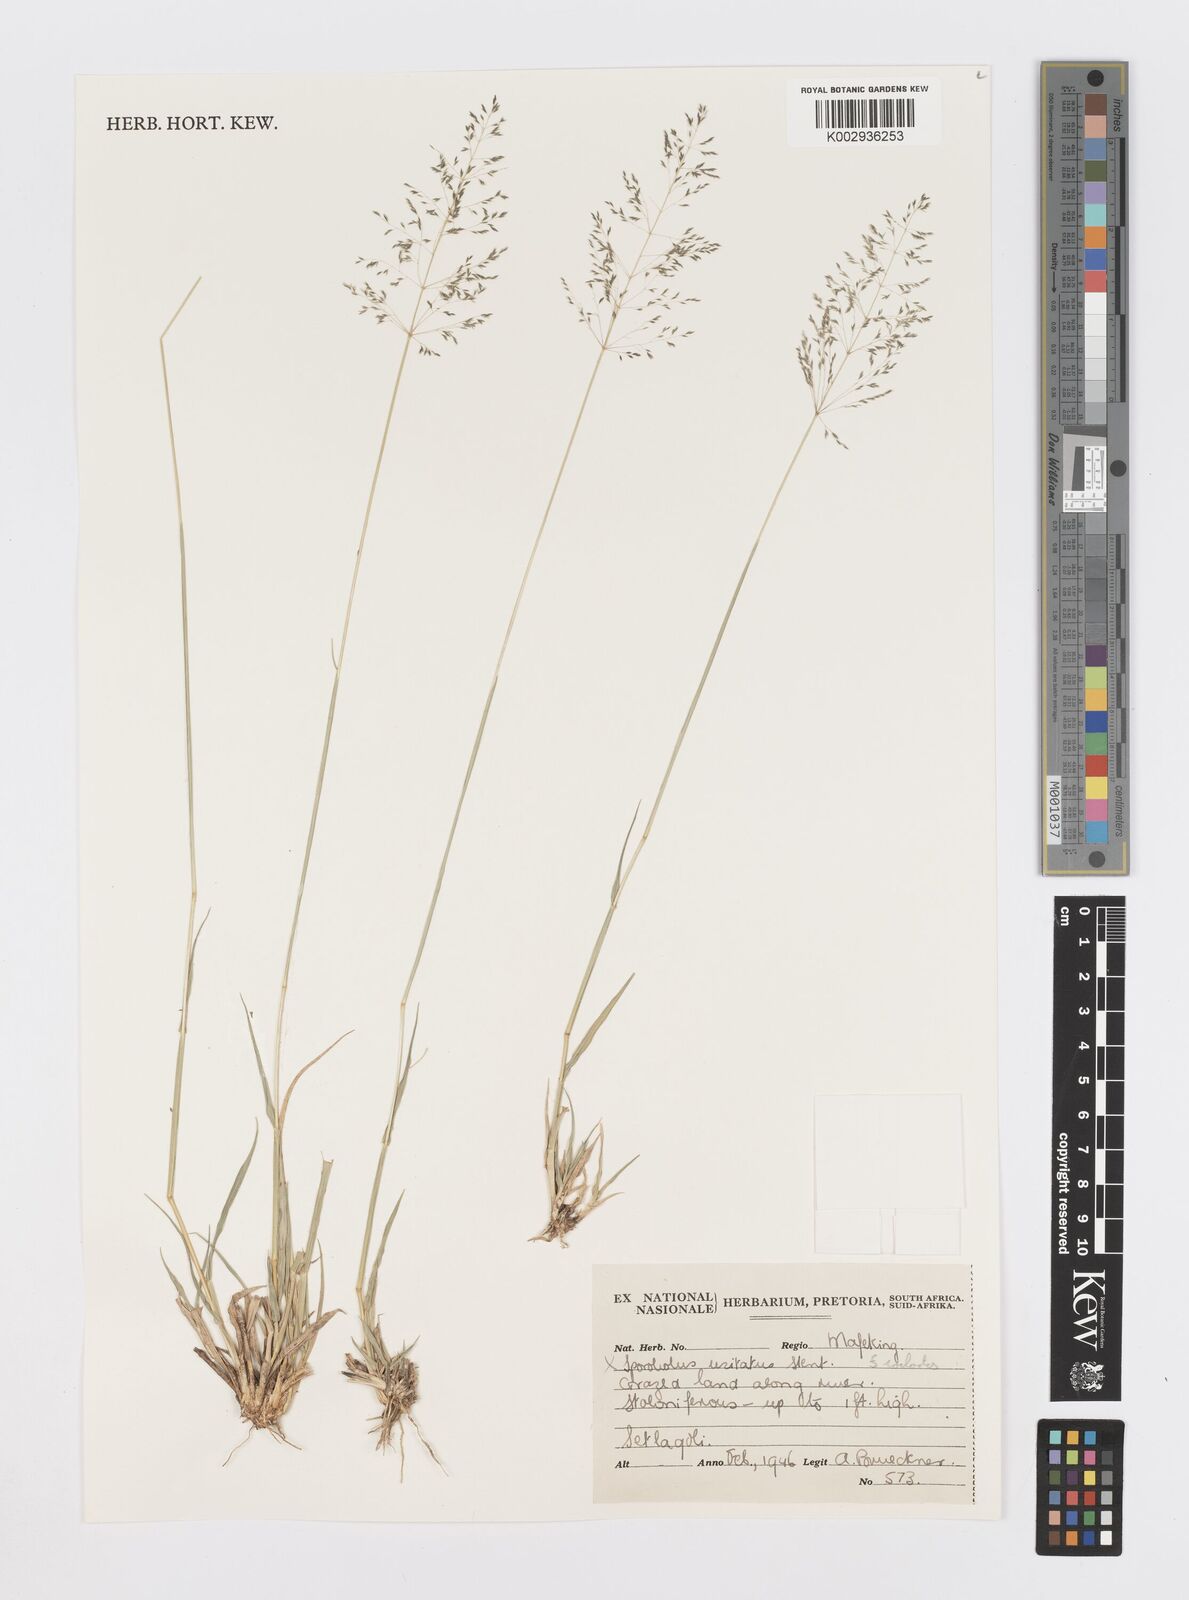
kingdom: Plantae
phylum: Tracheophyta
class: Liliopsida
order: Poales
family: Poaceae
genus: Sporobolus
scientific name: Sporobolus ioclados
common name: Pan dropseed
